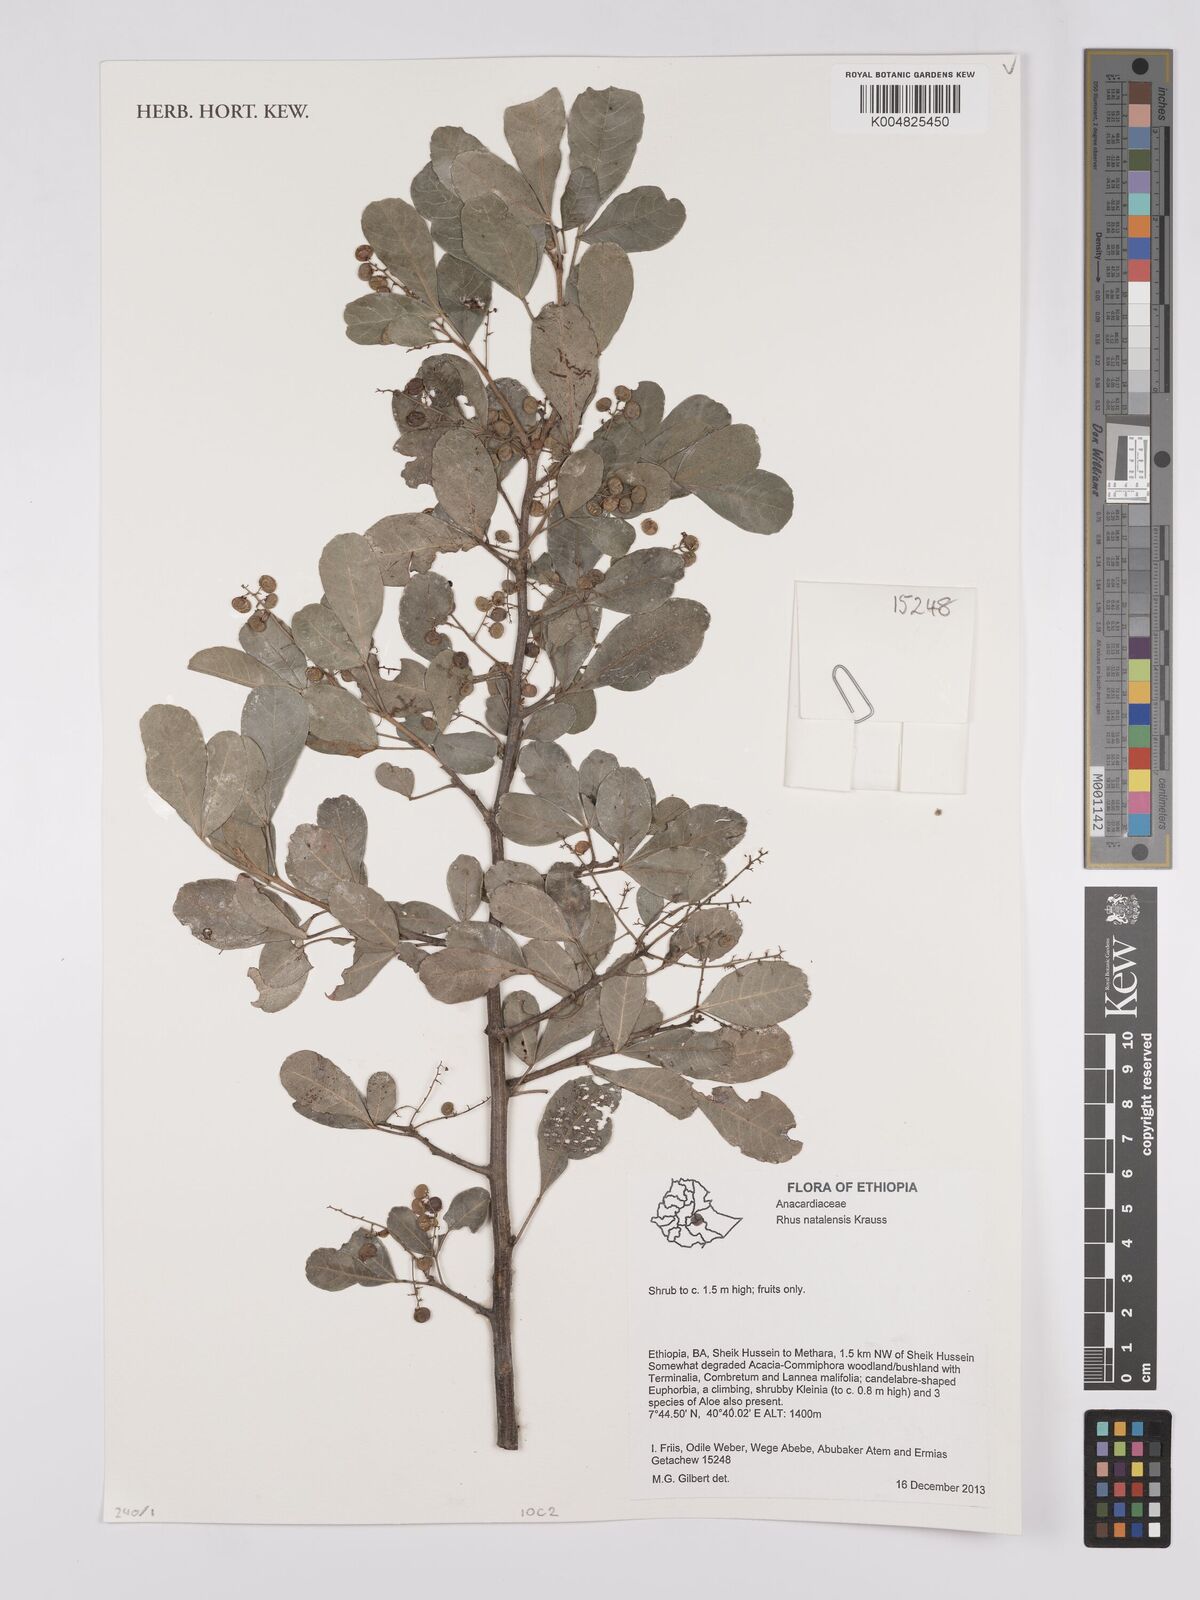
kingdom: Plantae
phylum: Tracheophyta
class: Magnoliopsida
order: Sapindales
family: Anacardiaceae
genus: Searsia
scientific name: Searsia natalensis
